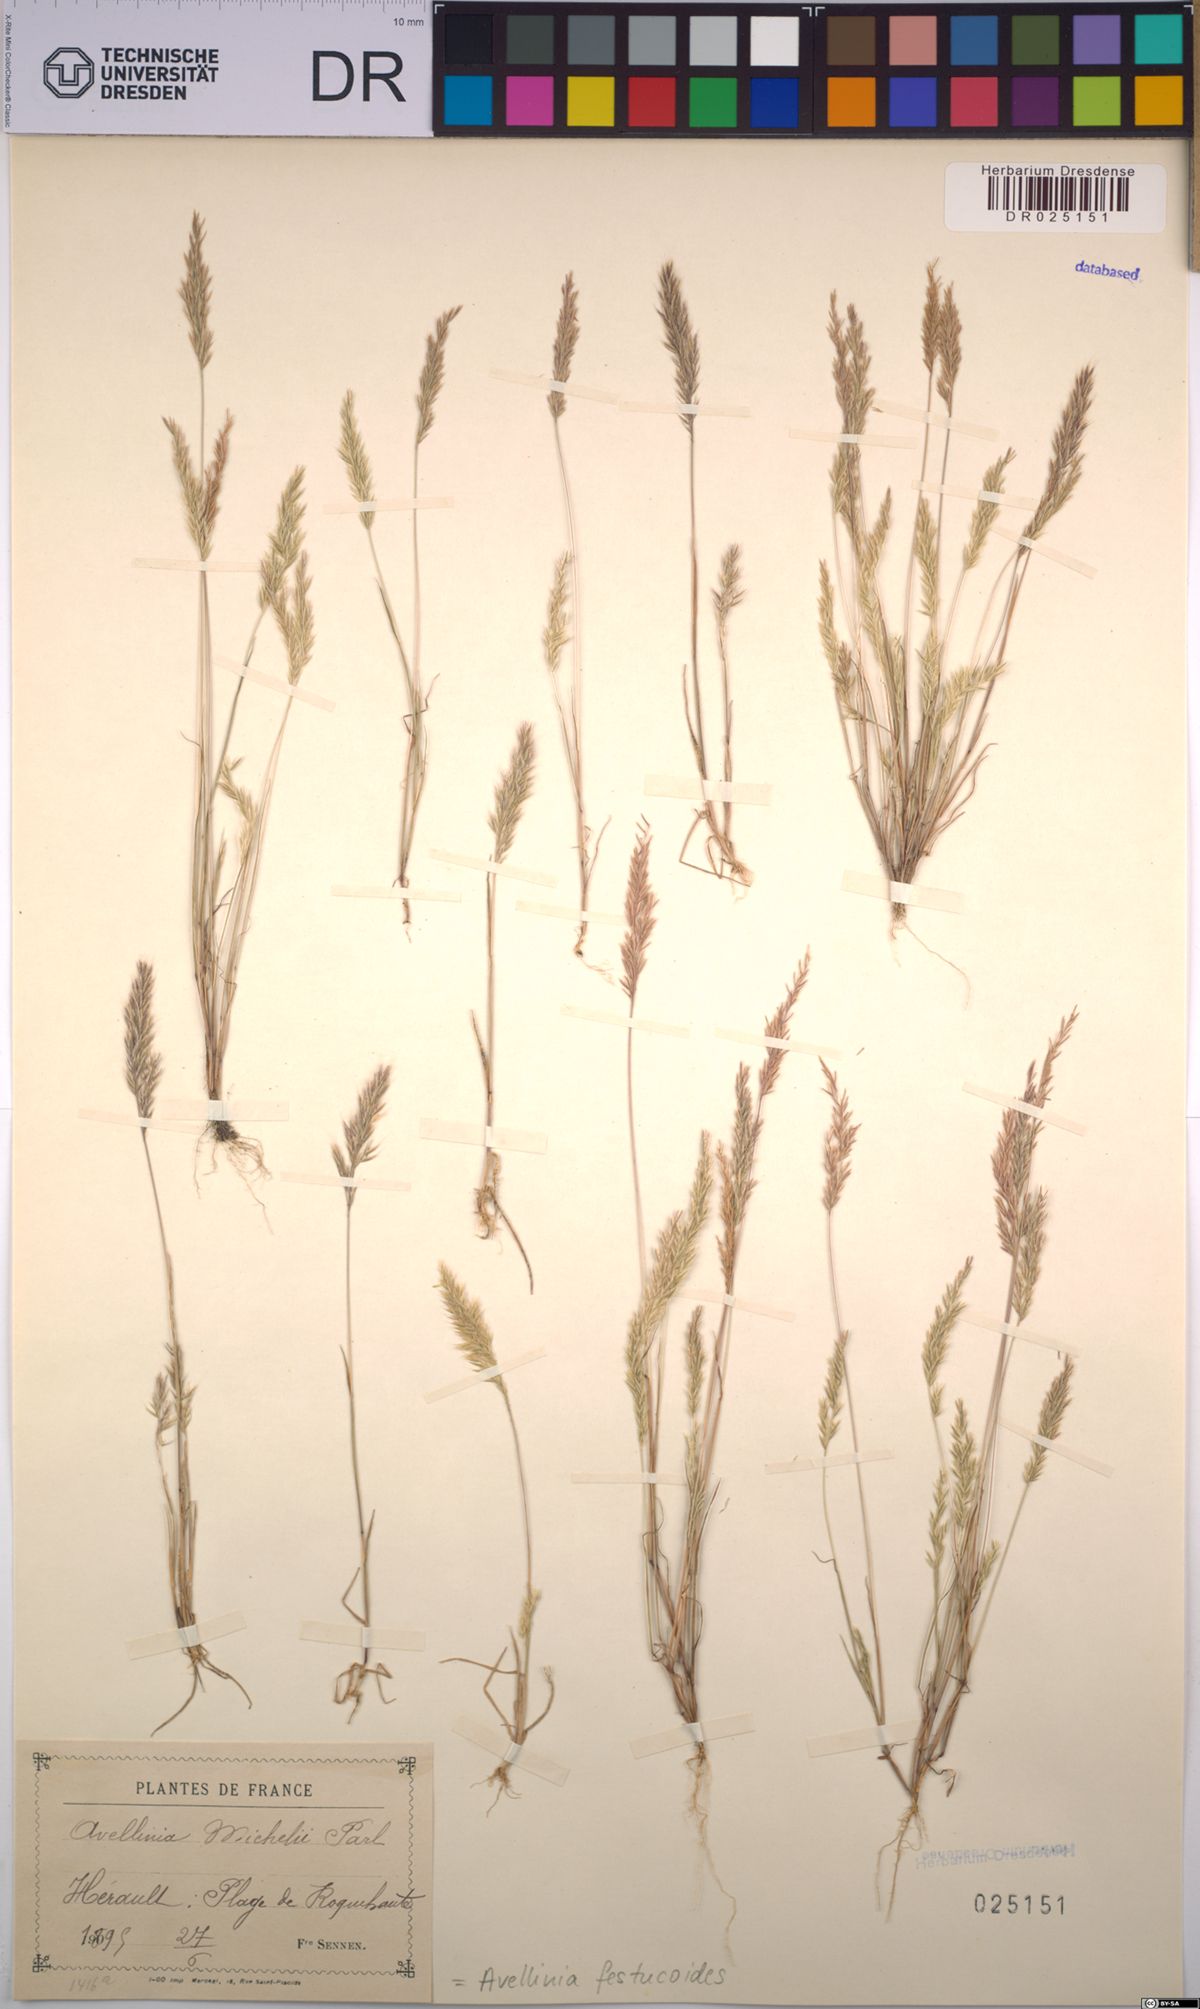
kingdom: Plantae
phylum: Tracheophyta
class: Liliopsida
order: Poales
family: Poaceae
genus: Avellinia
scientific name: Avellinia festucoides
